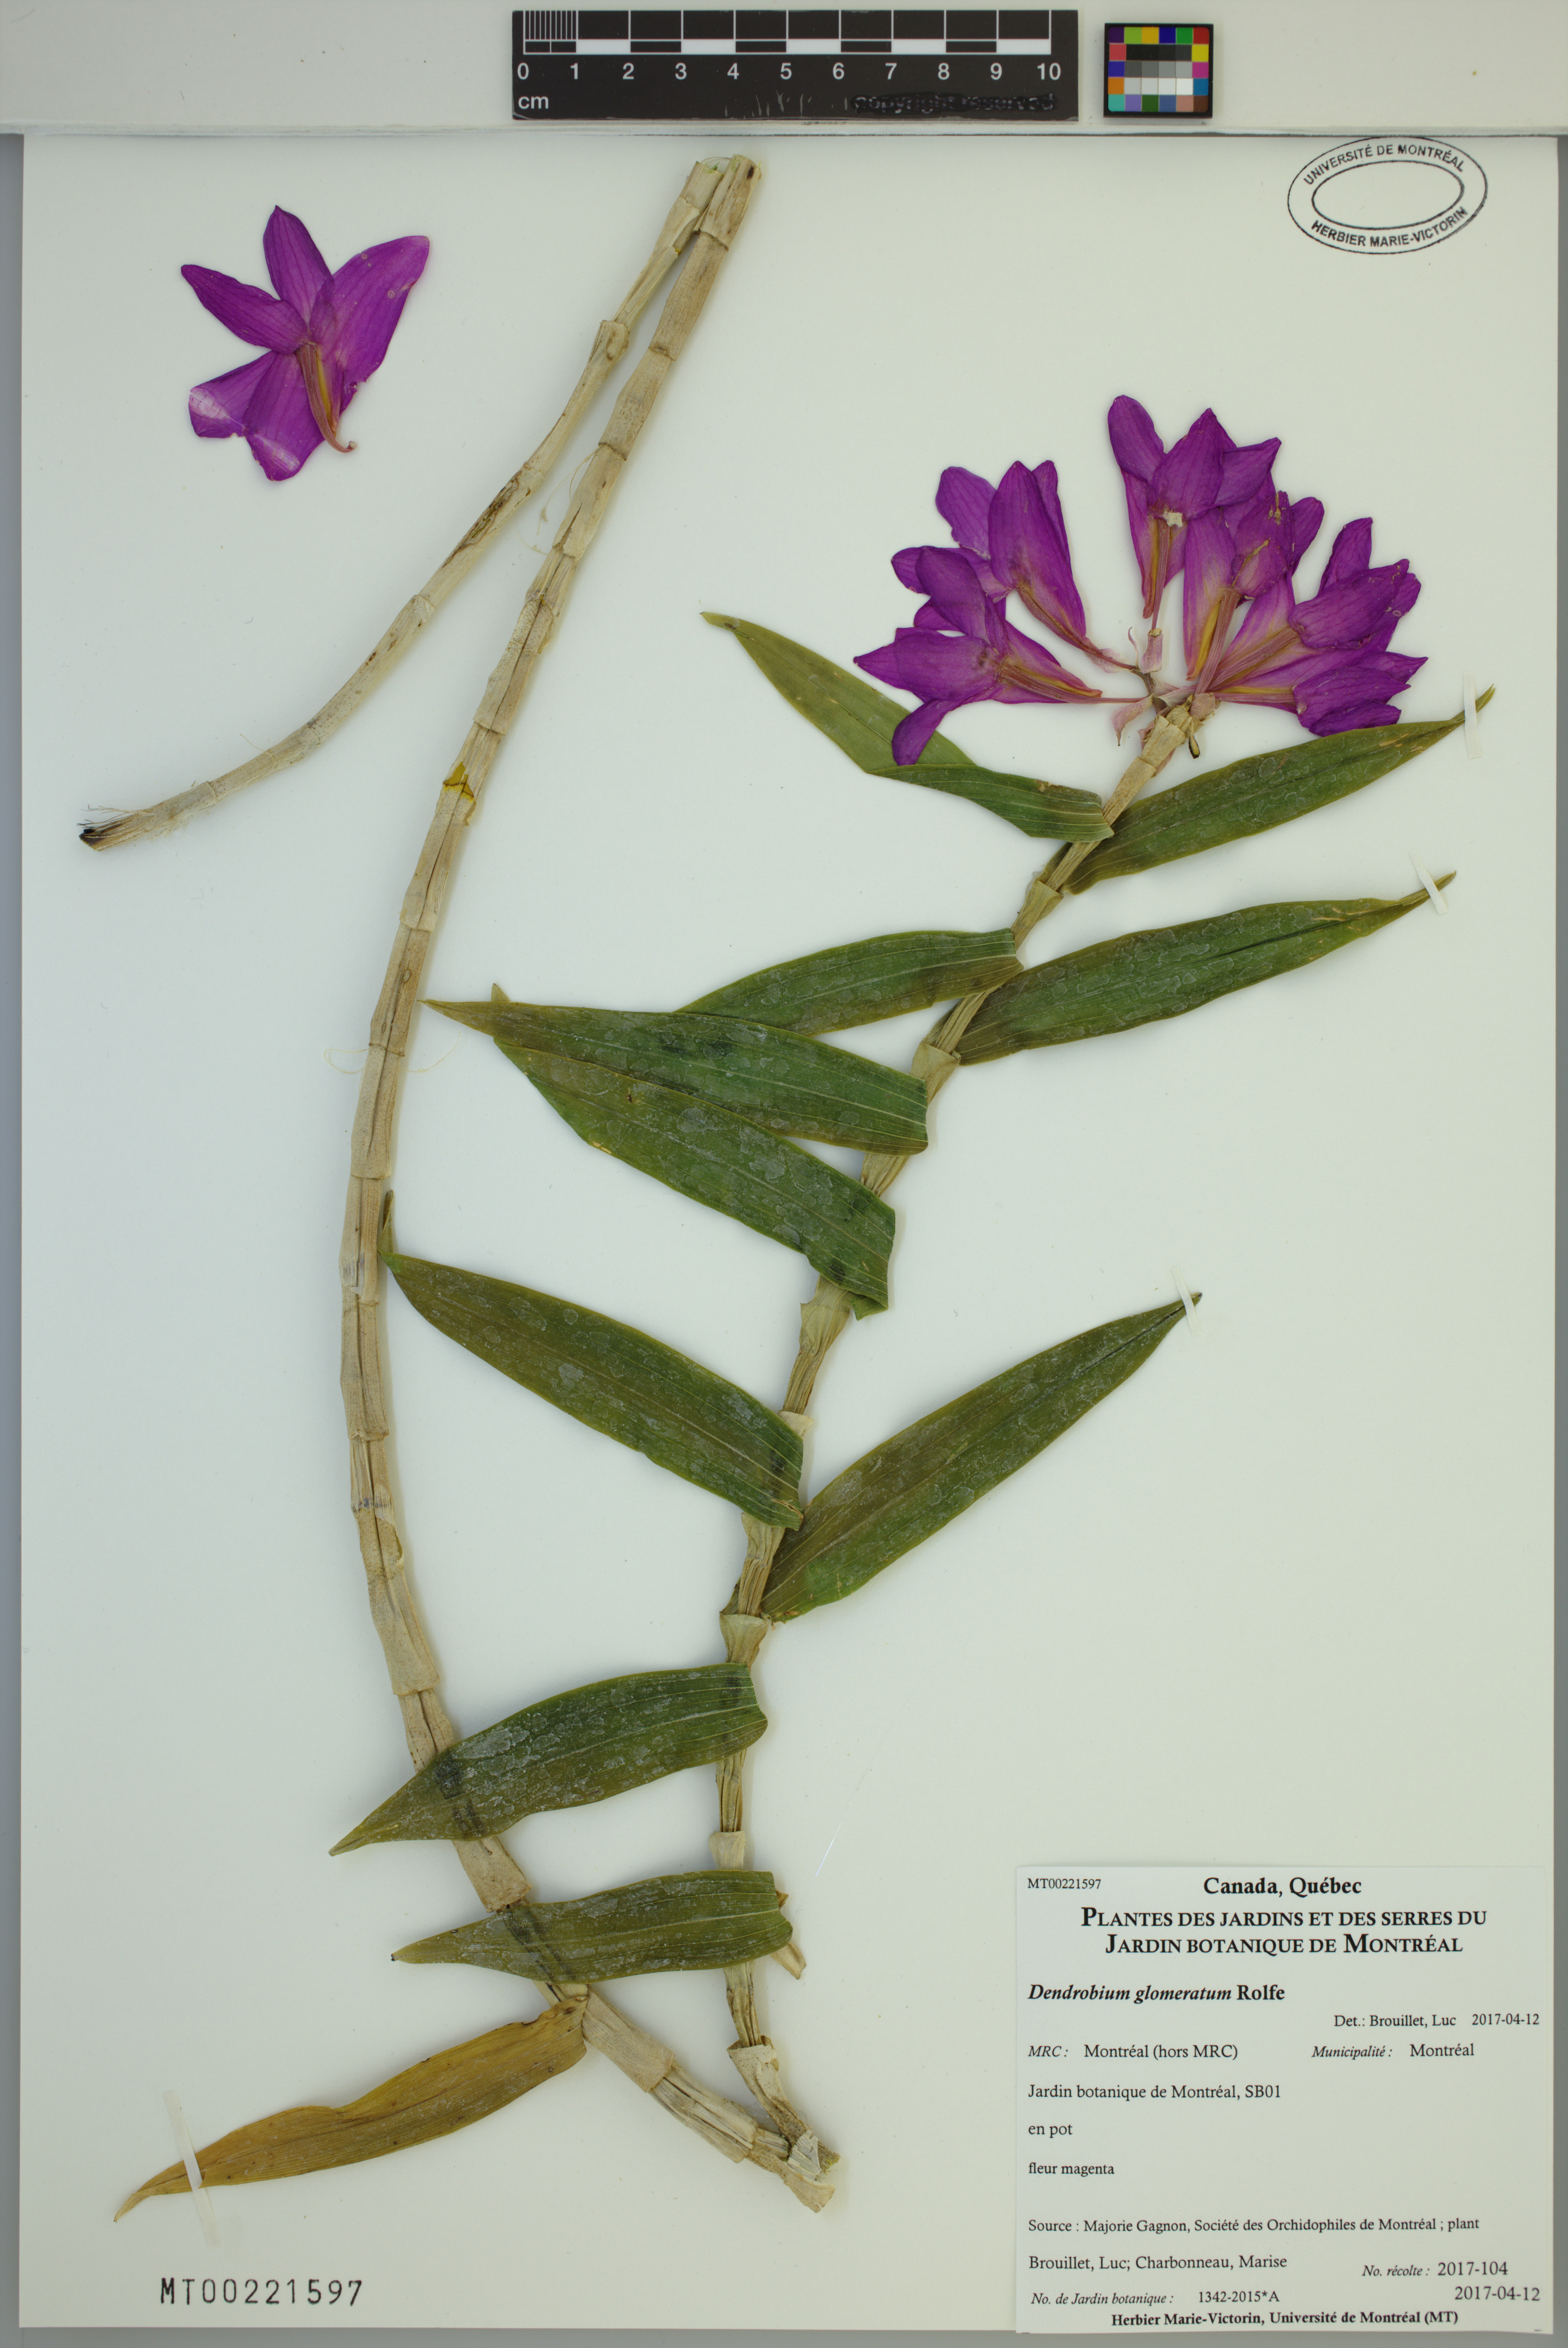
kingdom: Plantae
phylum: Tracheophyta
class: Liliopsida
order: Asparagales
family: Orchidaceae
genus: Dendrobium
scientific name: Dendrobium glomeratum
